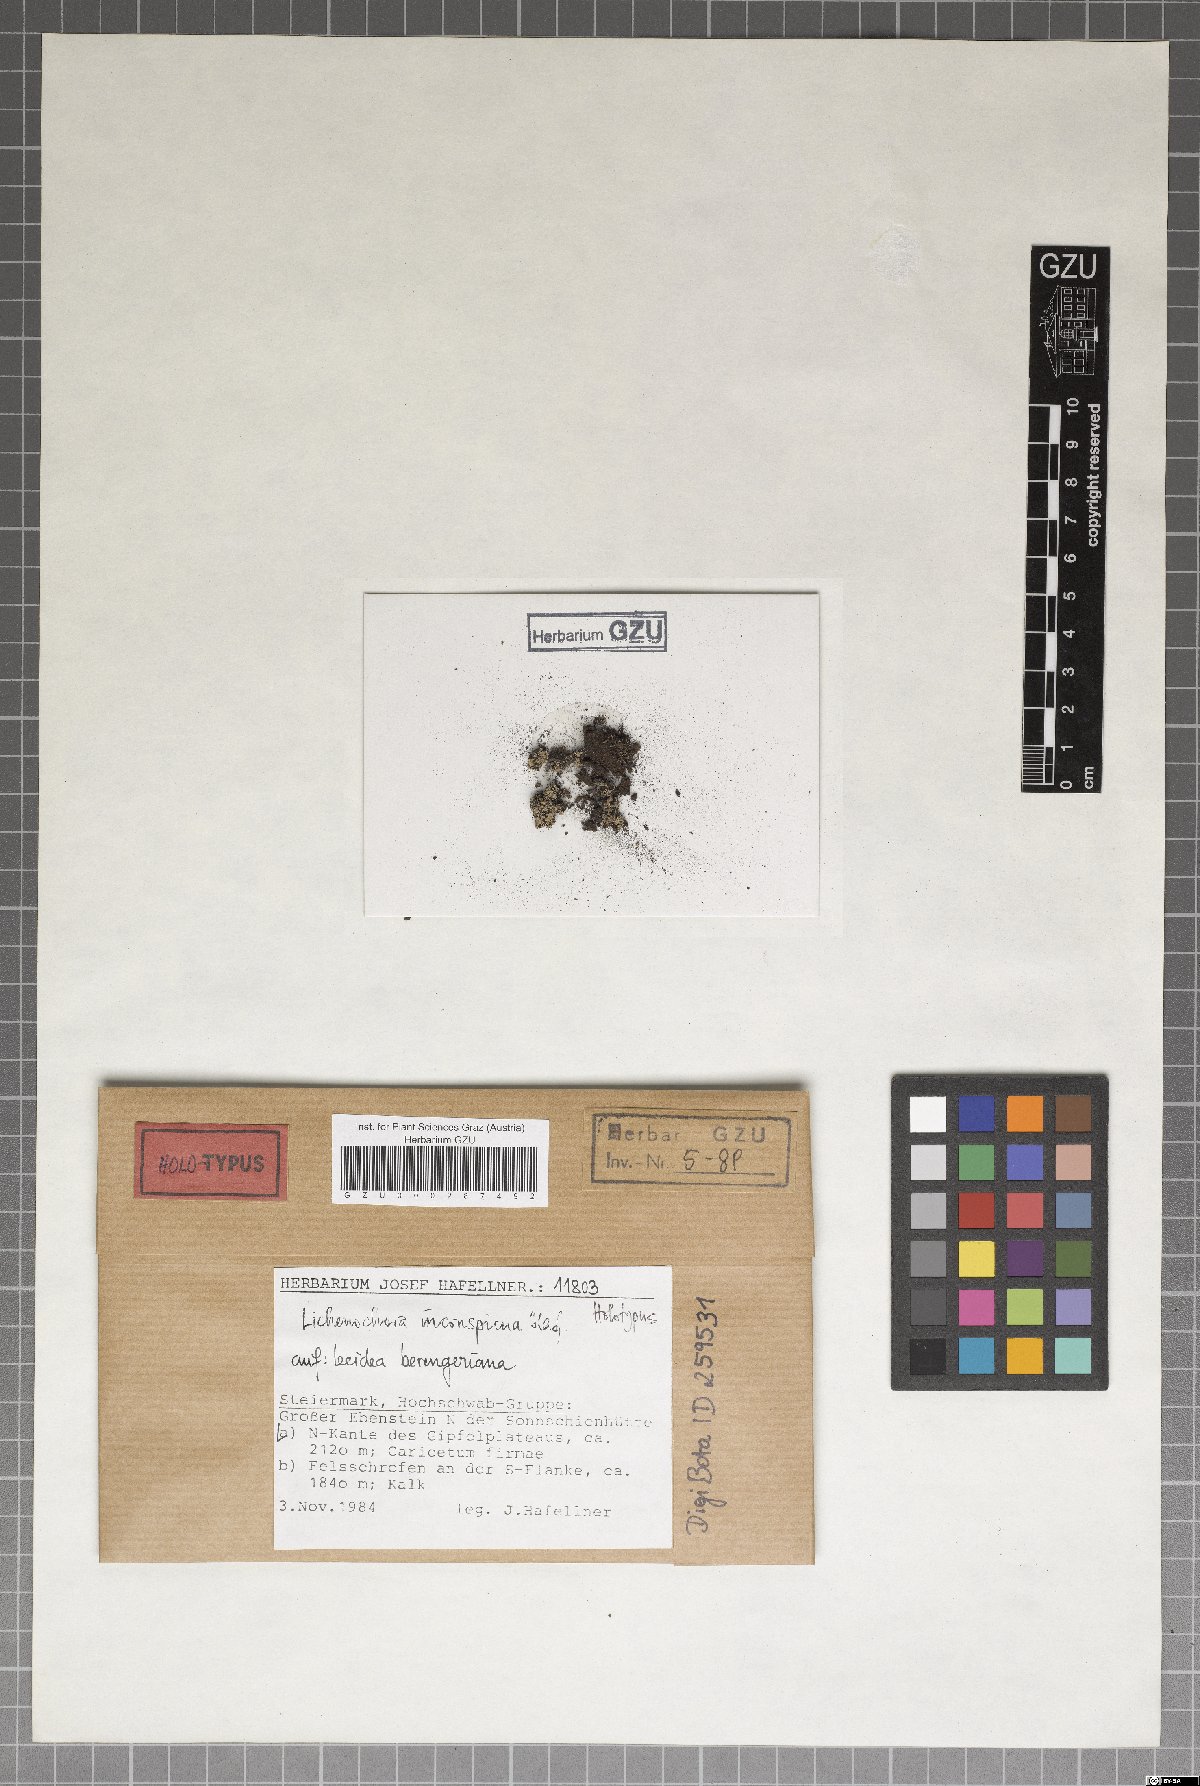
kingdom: Fungi
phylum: Ascomycota
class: Sordariomycetes
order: Phyllachorales
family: Phyllachoraceae
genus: Lichenochora
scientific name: Lichenochora inconspicua
